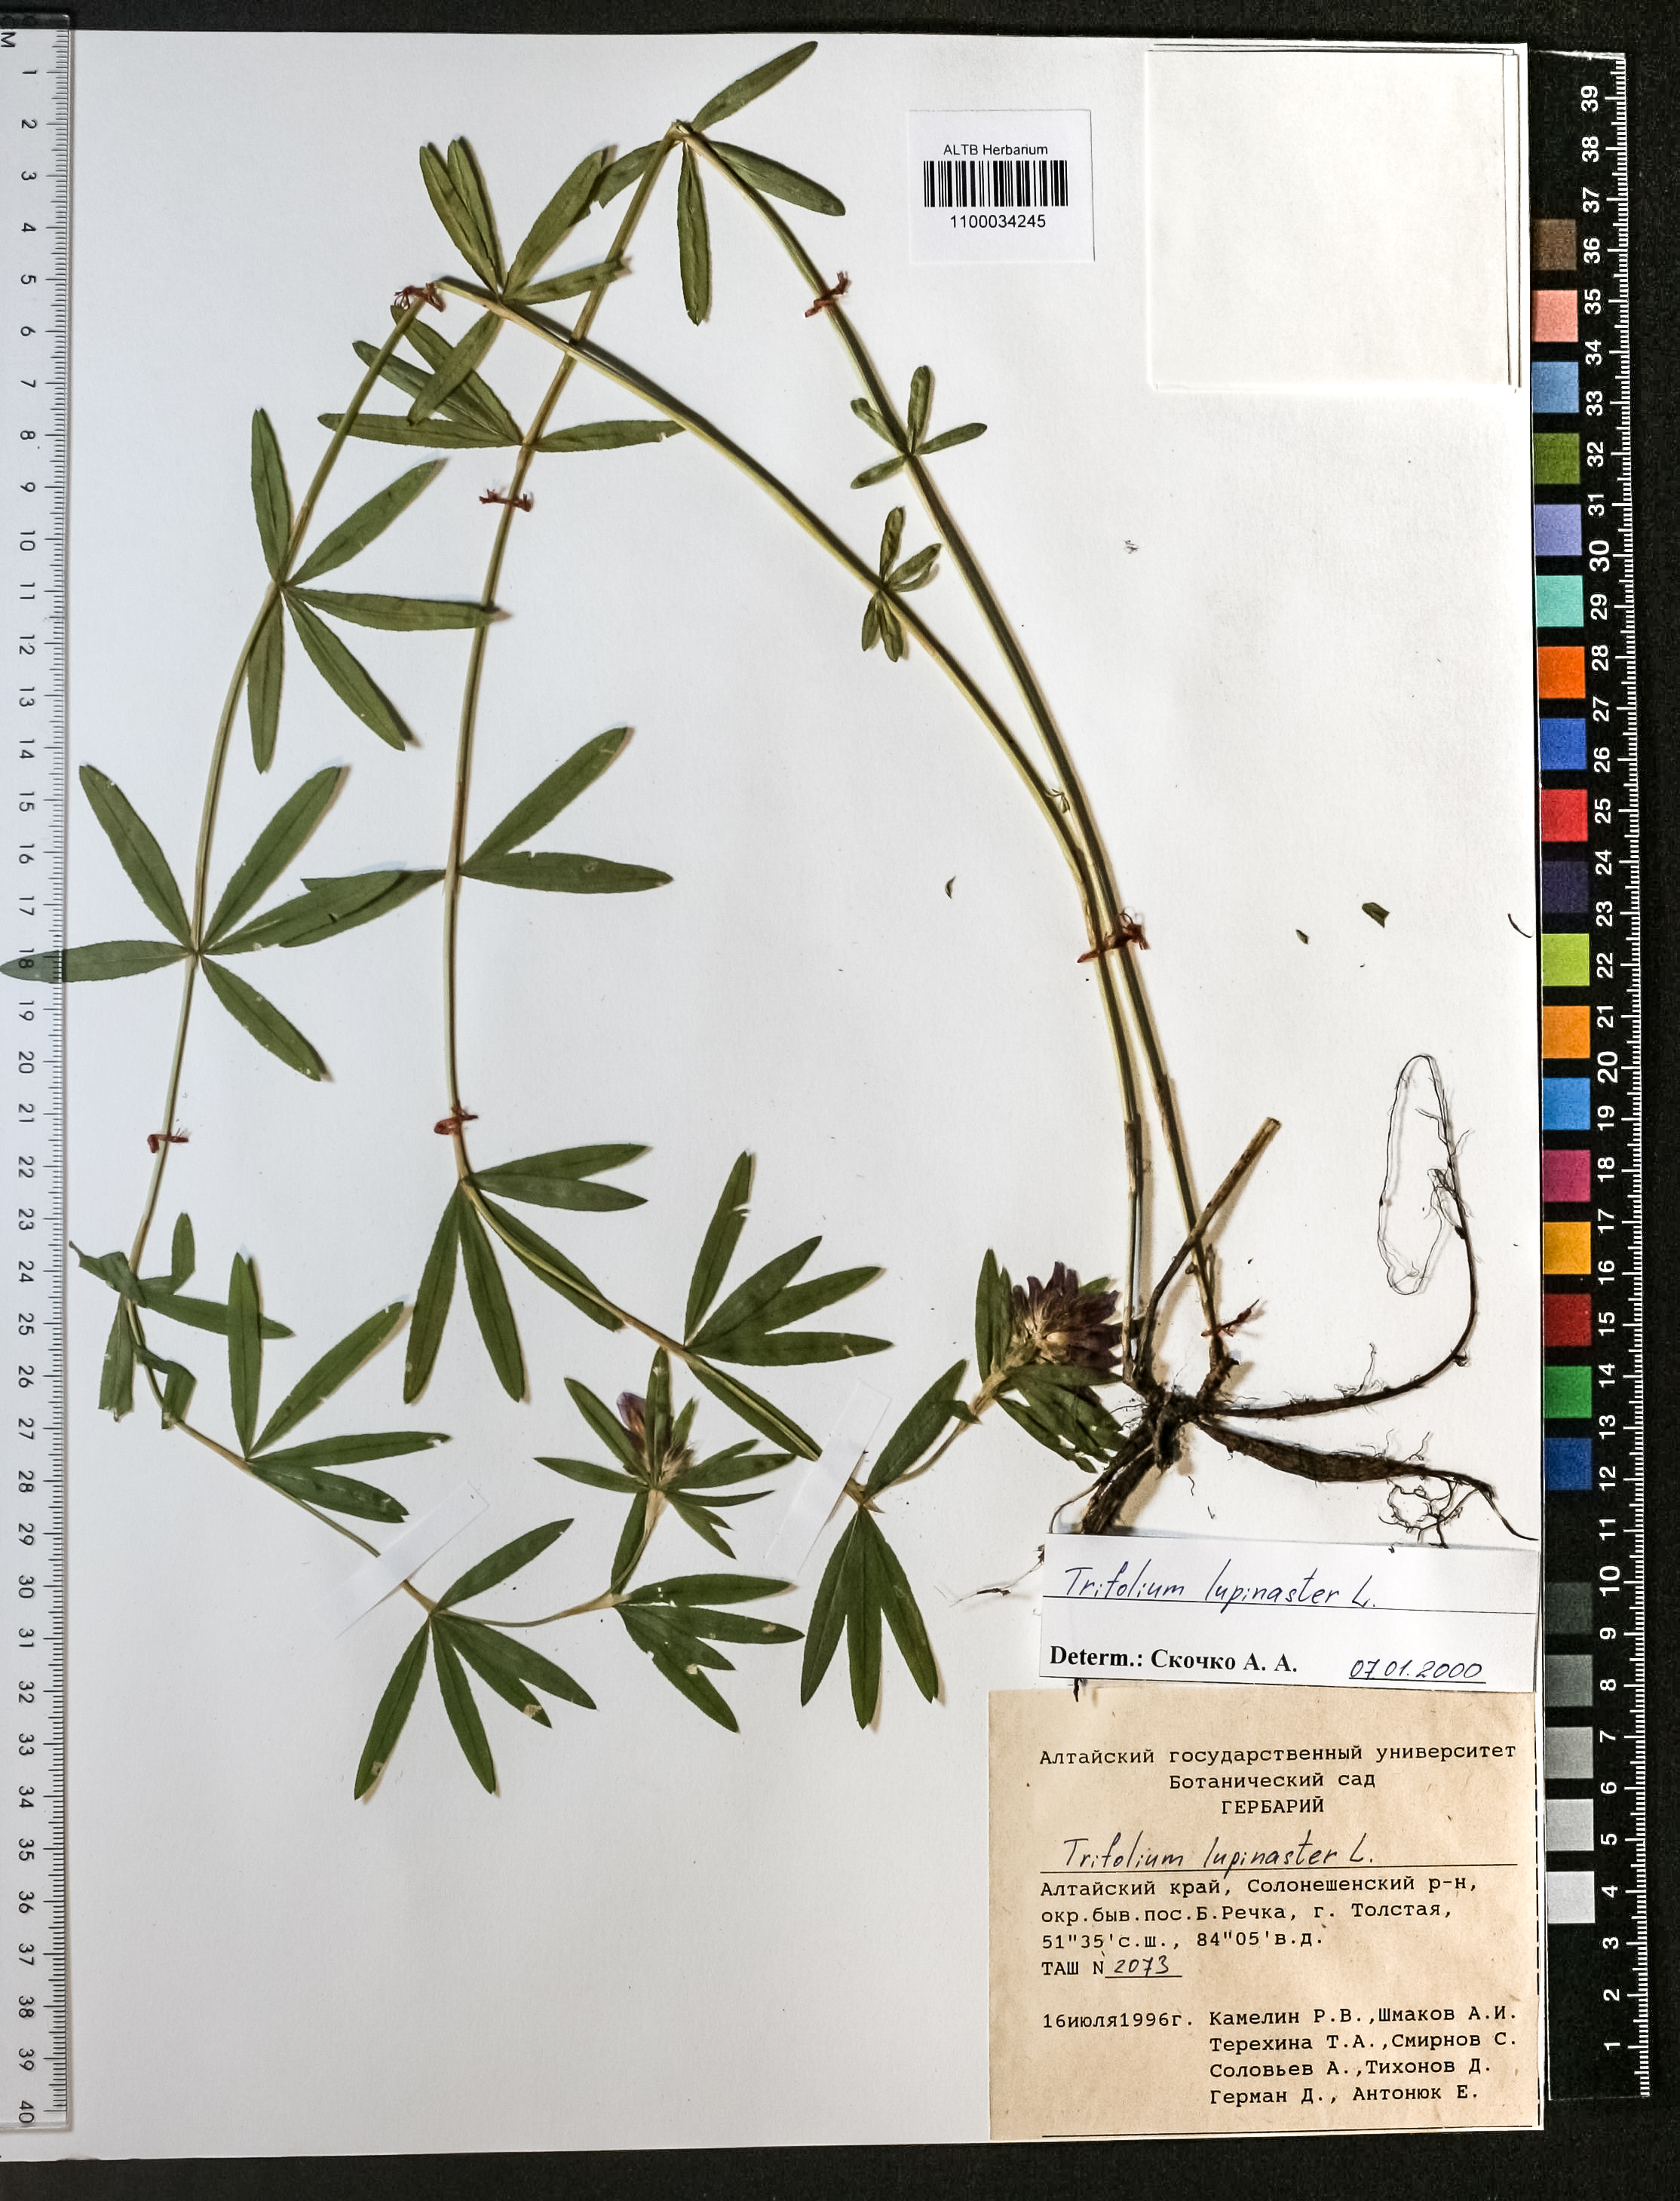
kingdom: Plantae
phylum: Tracheophyta
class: Magnoliopsida
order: Fabales
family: Fabaceae
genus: Trifolium
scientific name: Trifolium lupinaster
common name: Lupine clover
